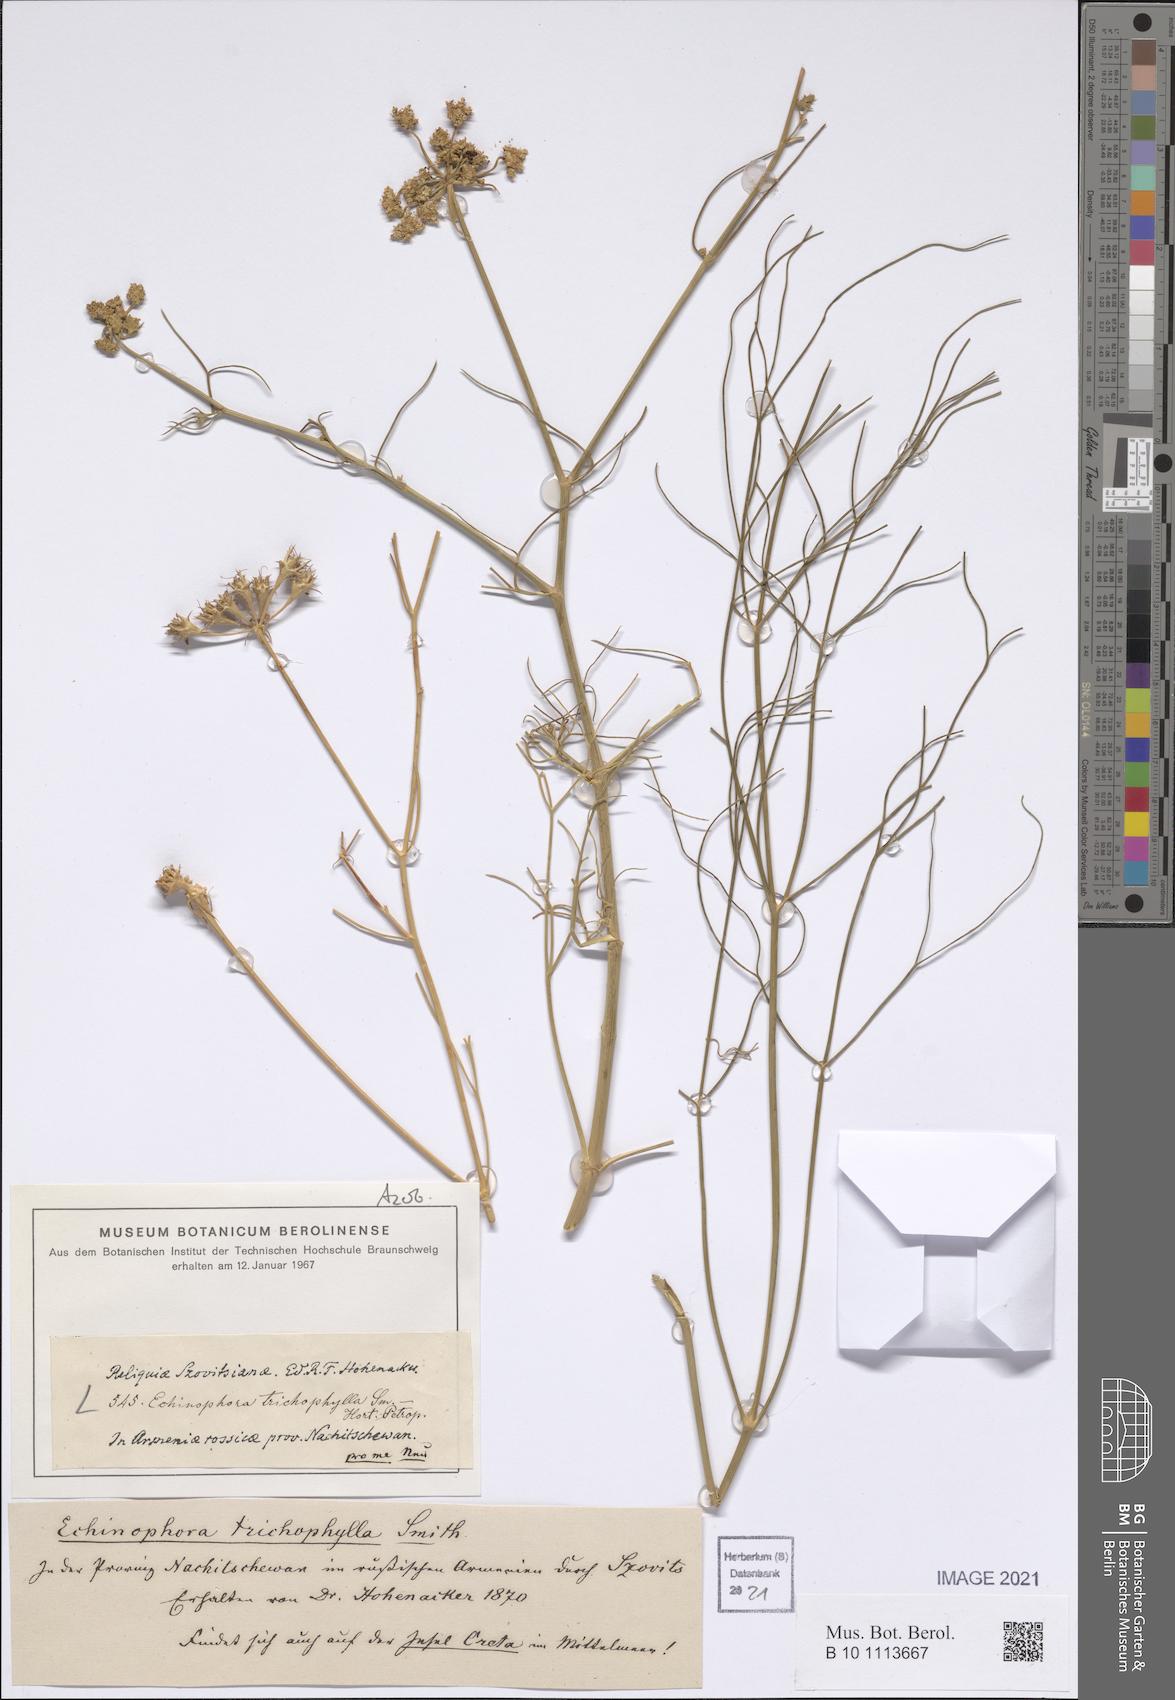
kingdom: Plantae
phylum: Tracheophyta
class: Magnoliopsida
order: Apiales
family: Apiaceae
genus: Echinophora
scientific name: Echinophora trichophylla
